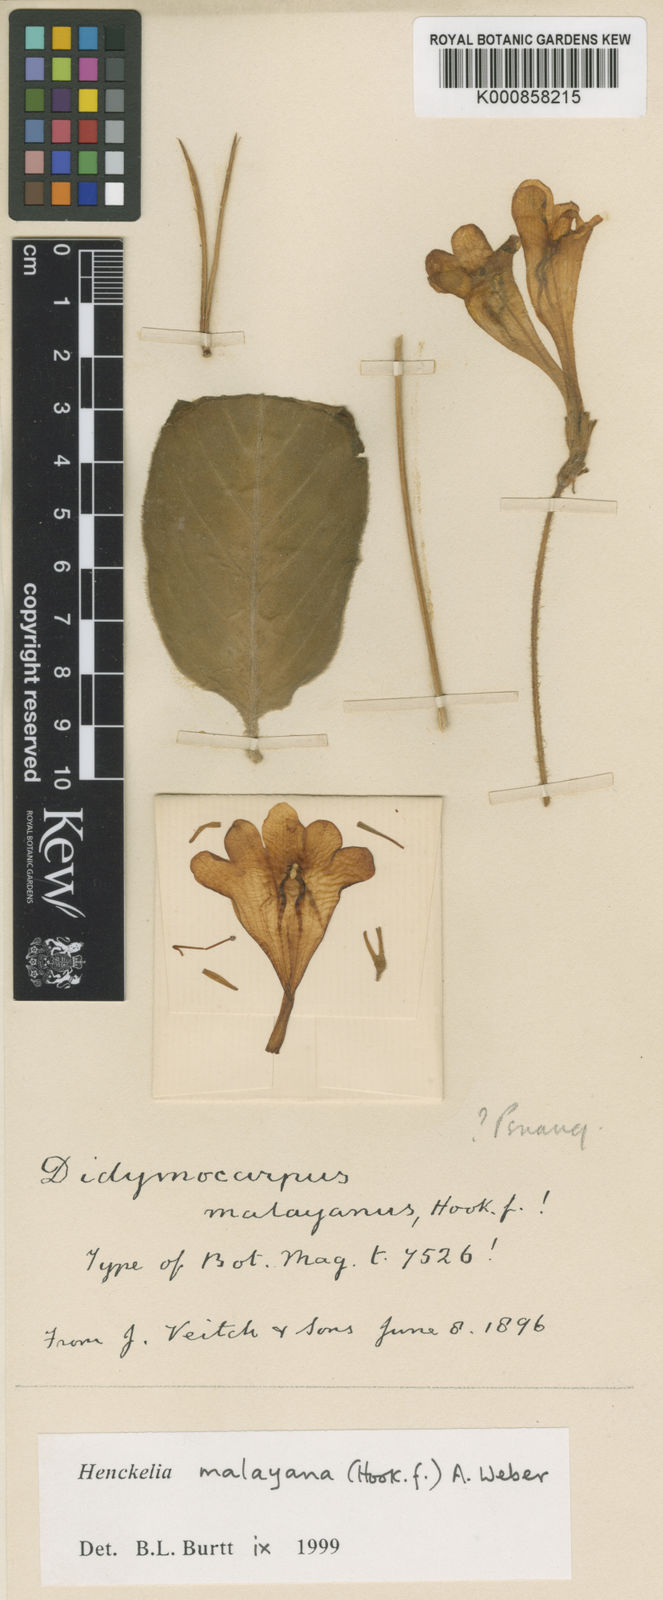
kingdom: Plantae
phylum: Tracheophyta
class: Magnoliopsida
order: Lamiales
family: Gesneriaceae
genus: Codonoboea
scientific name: Codonoboea malayana
